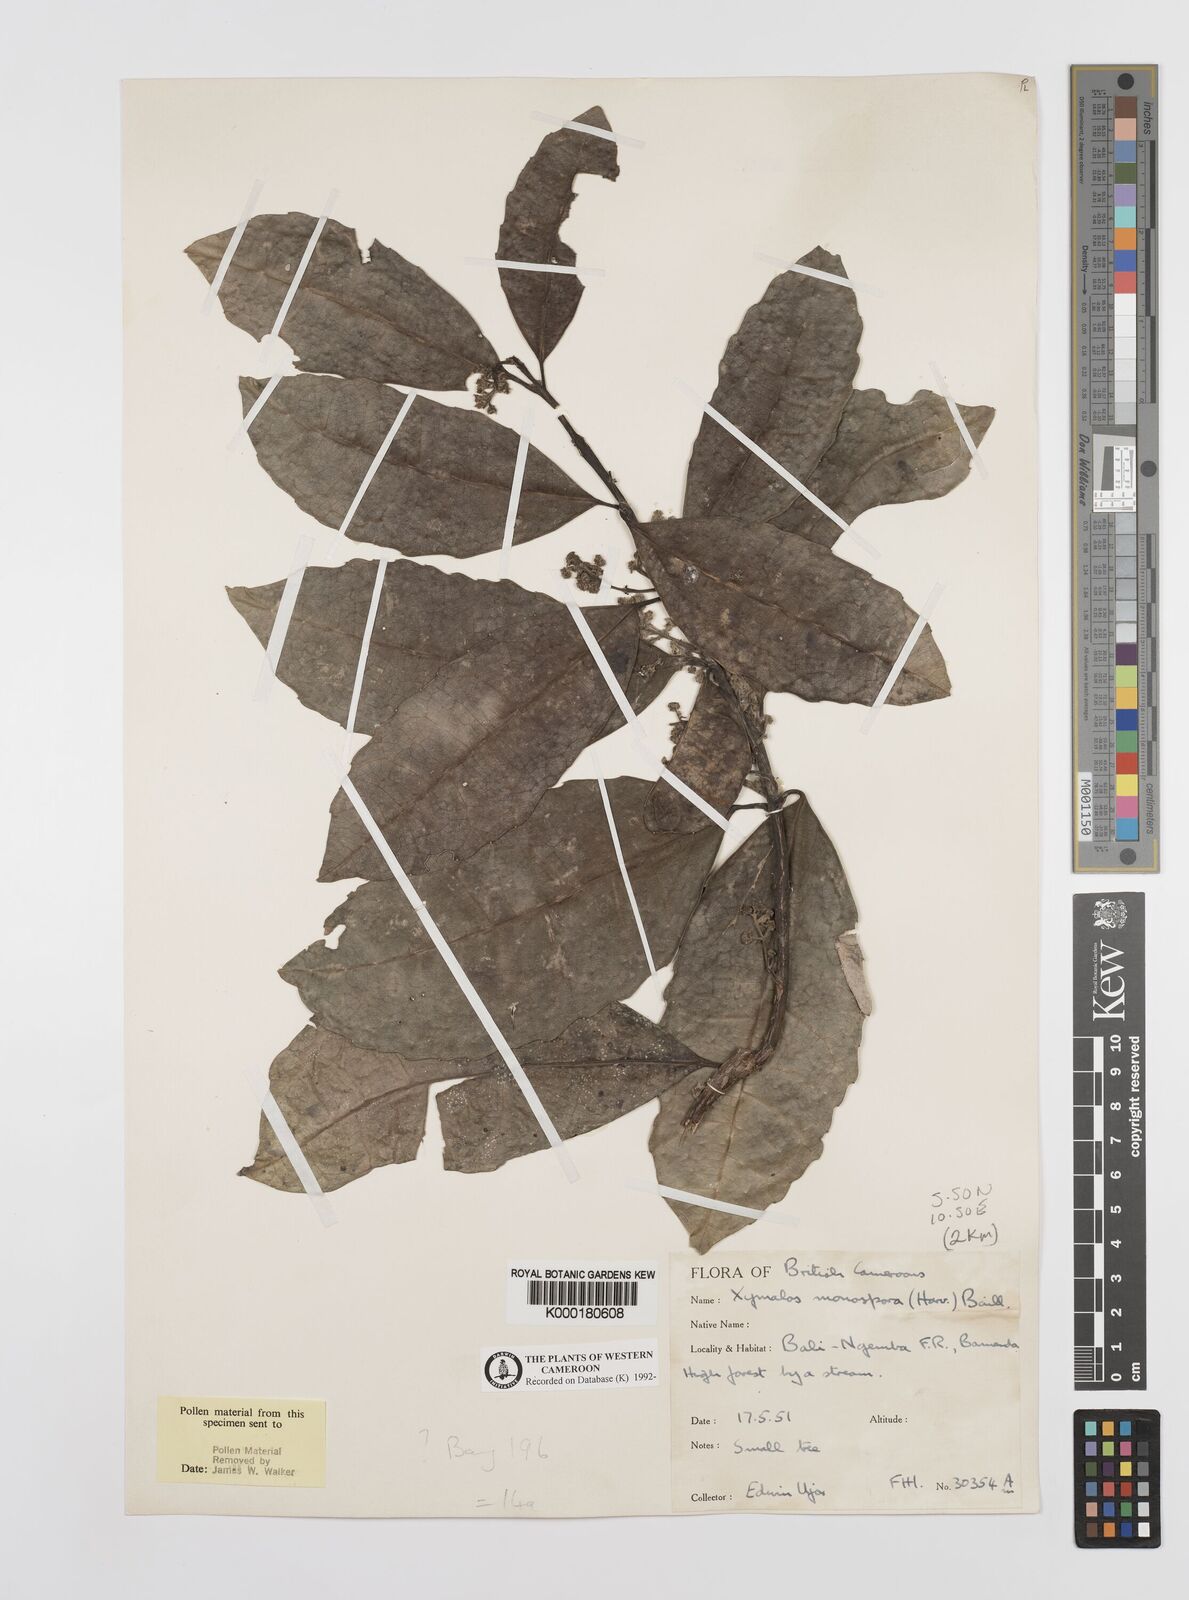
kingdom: Plantae
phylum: Tracheophyta
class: Magnoliopsida
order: Laurales
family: Monimiaceae
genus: Xymalos
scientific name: Xymalos
